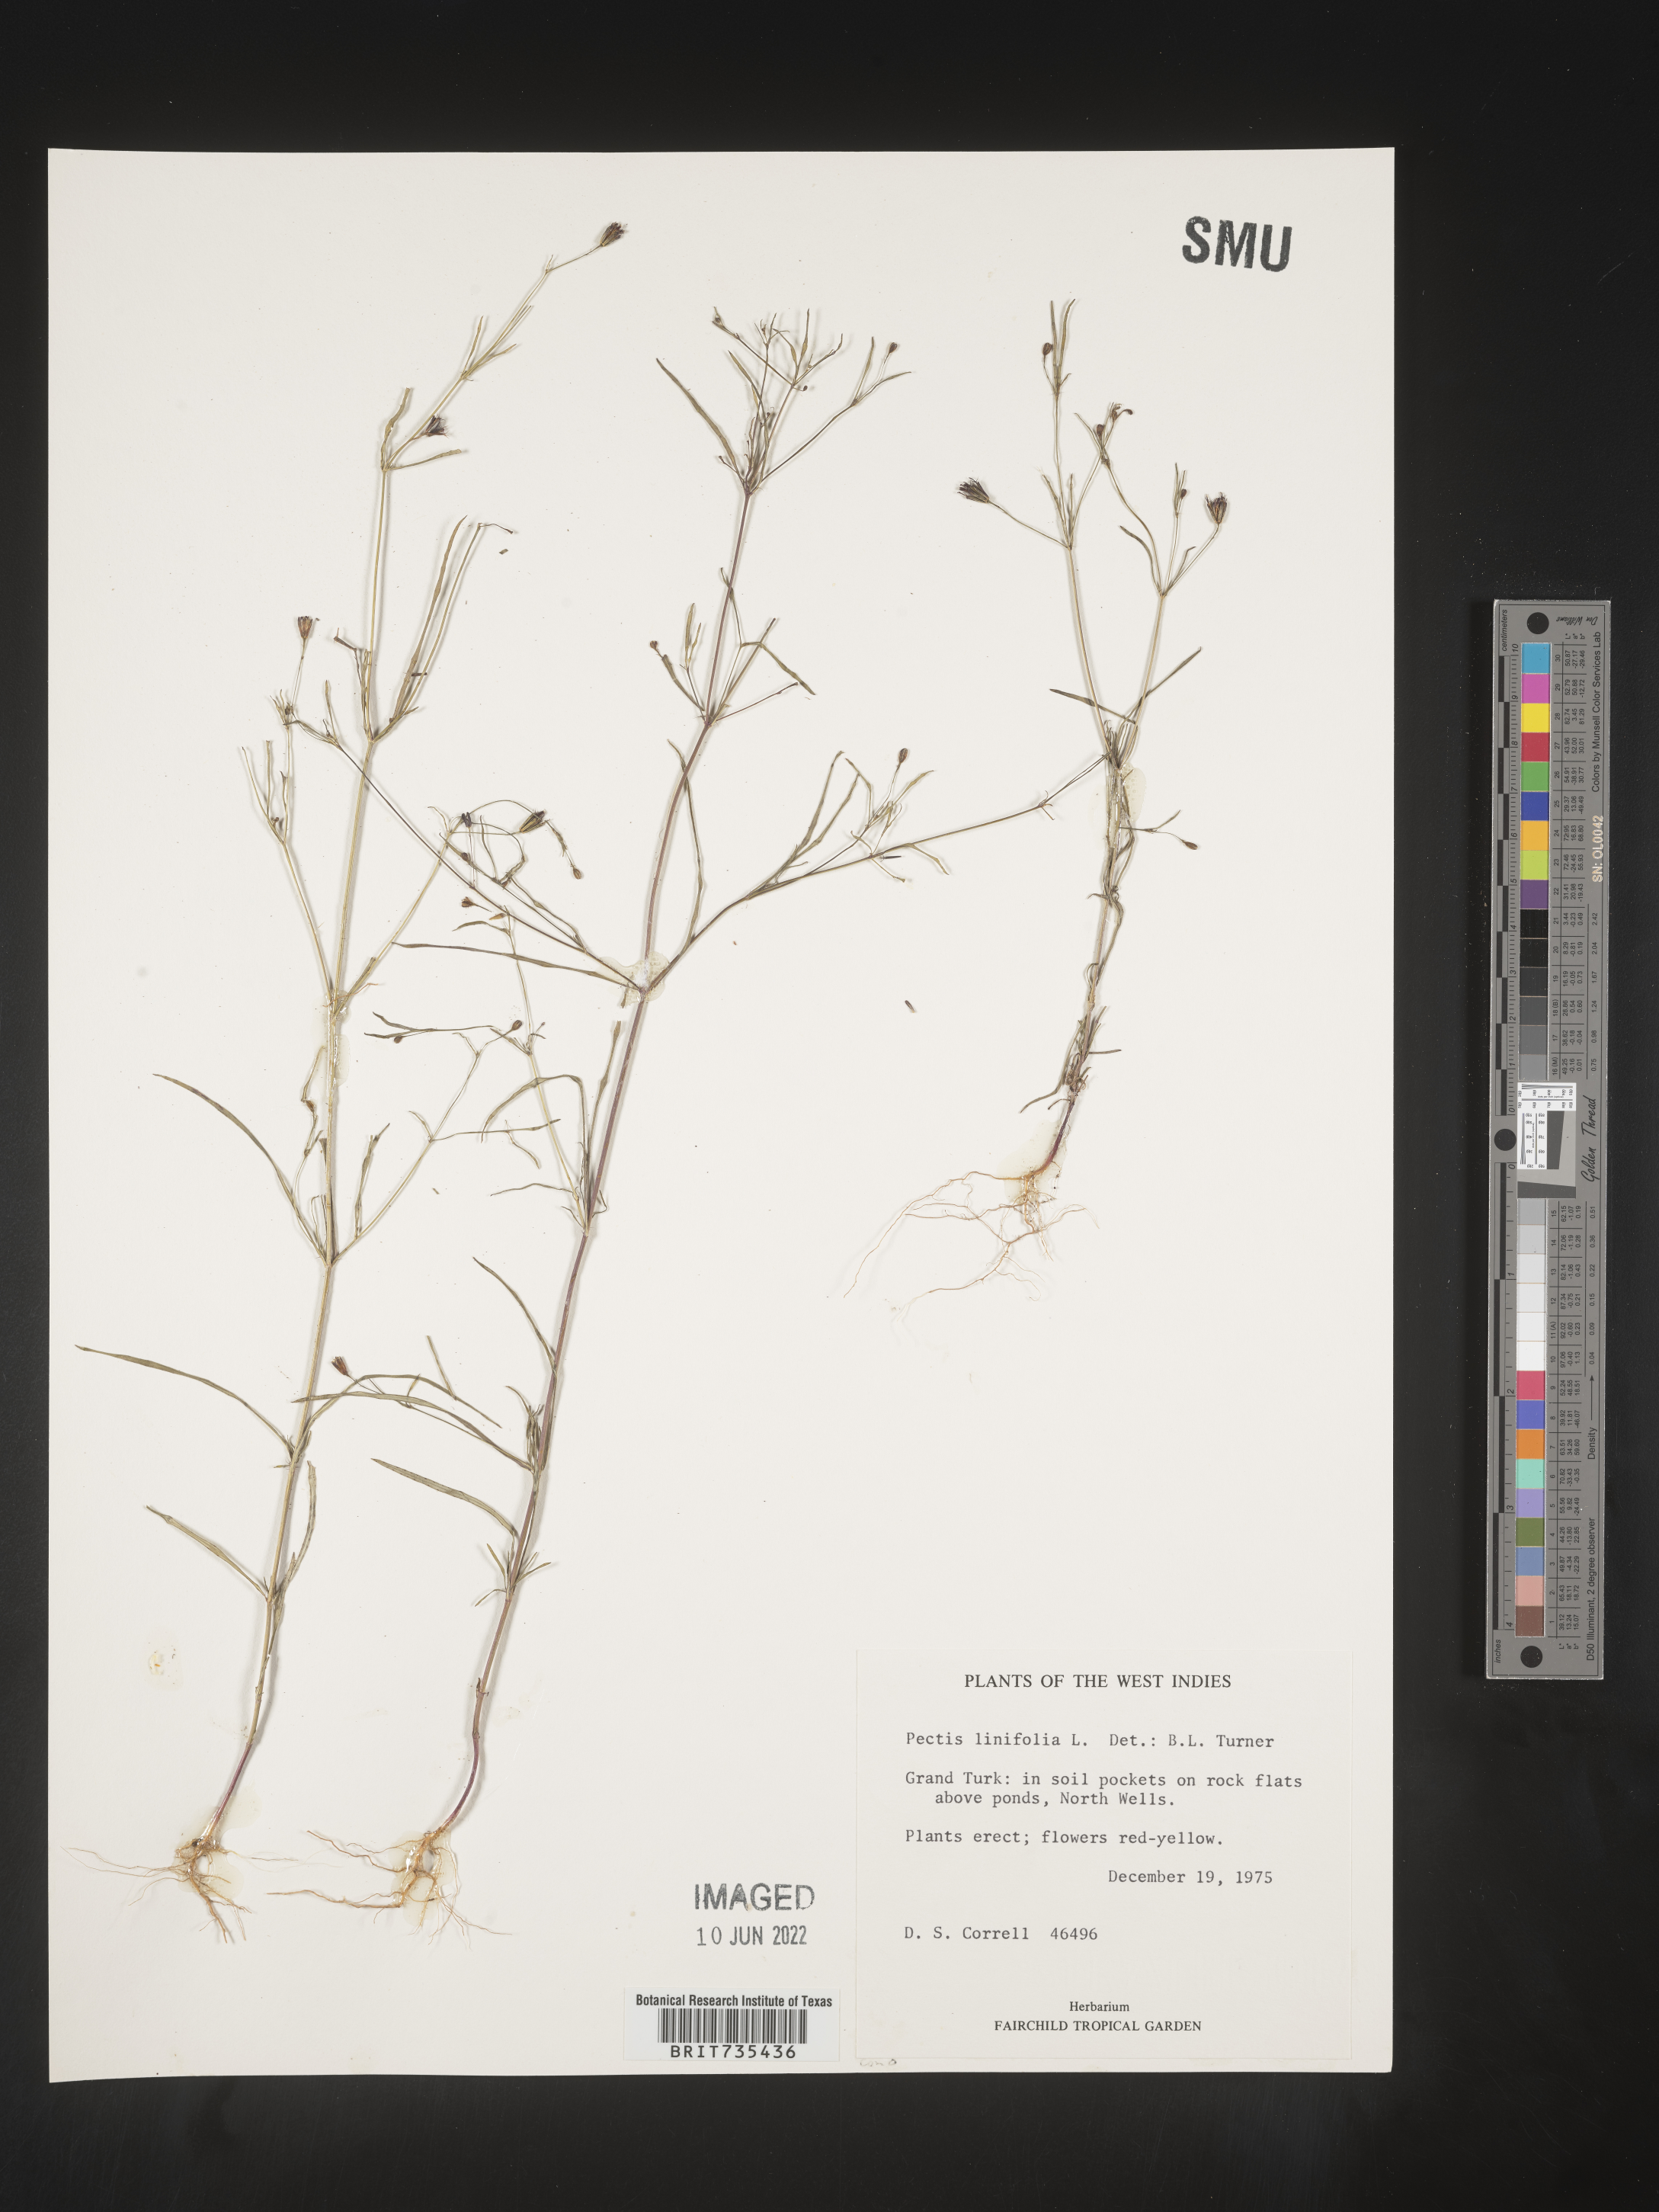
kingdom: Plantae
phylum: Tracheophyta
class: Magnoliopsida
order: Asterales
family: Asteraceae
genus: Pectis
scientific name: Pectis
